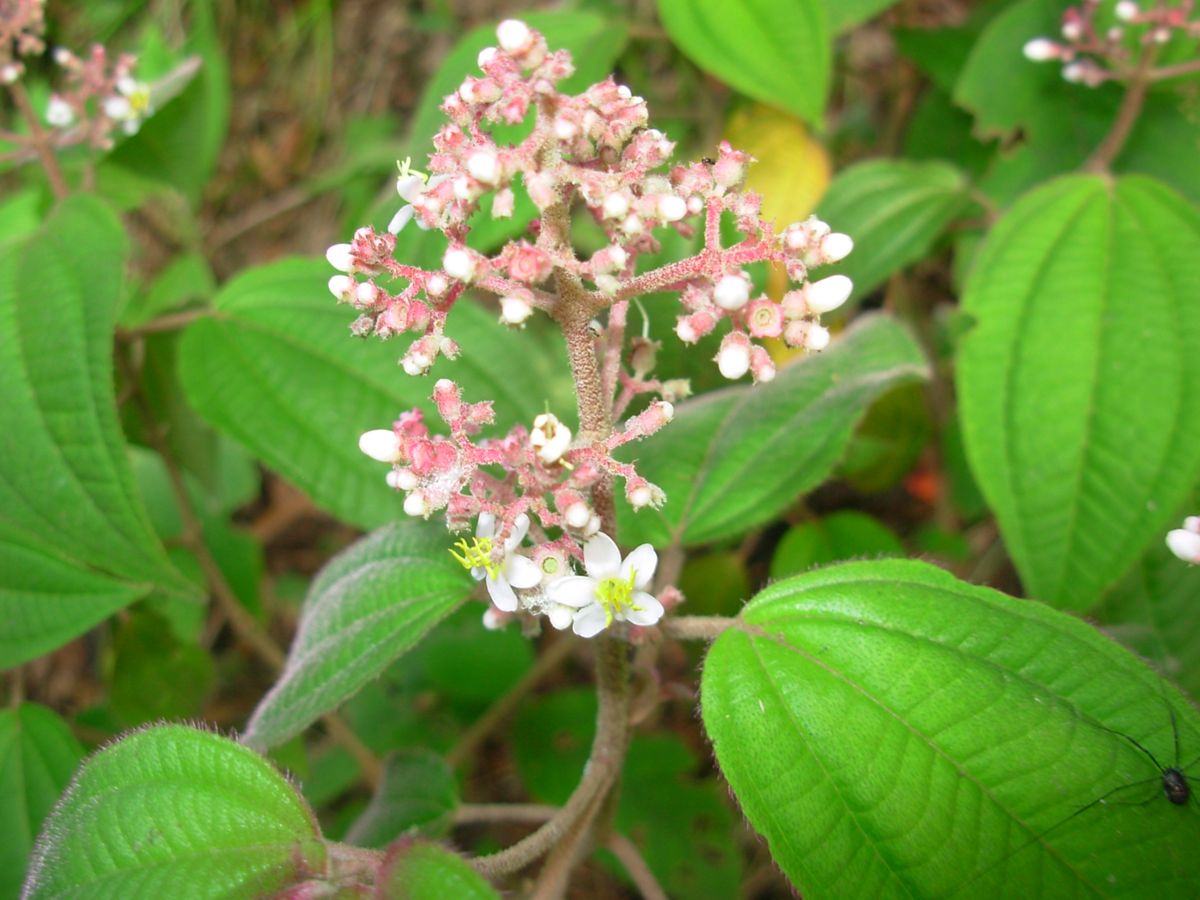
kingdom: Plantae
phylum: Tracheophyta
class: Magnoliopsida
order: Myrtales
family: Melastomataceae
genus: Miconia
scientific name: Miconia guatemalensis
